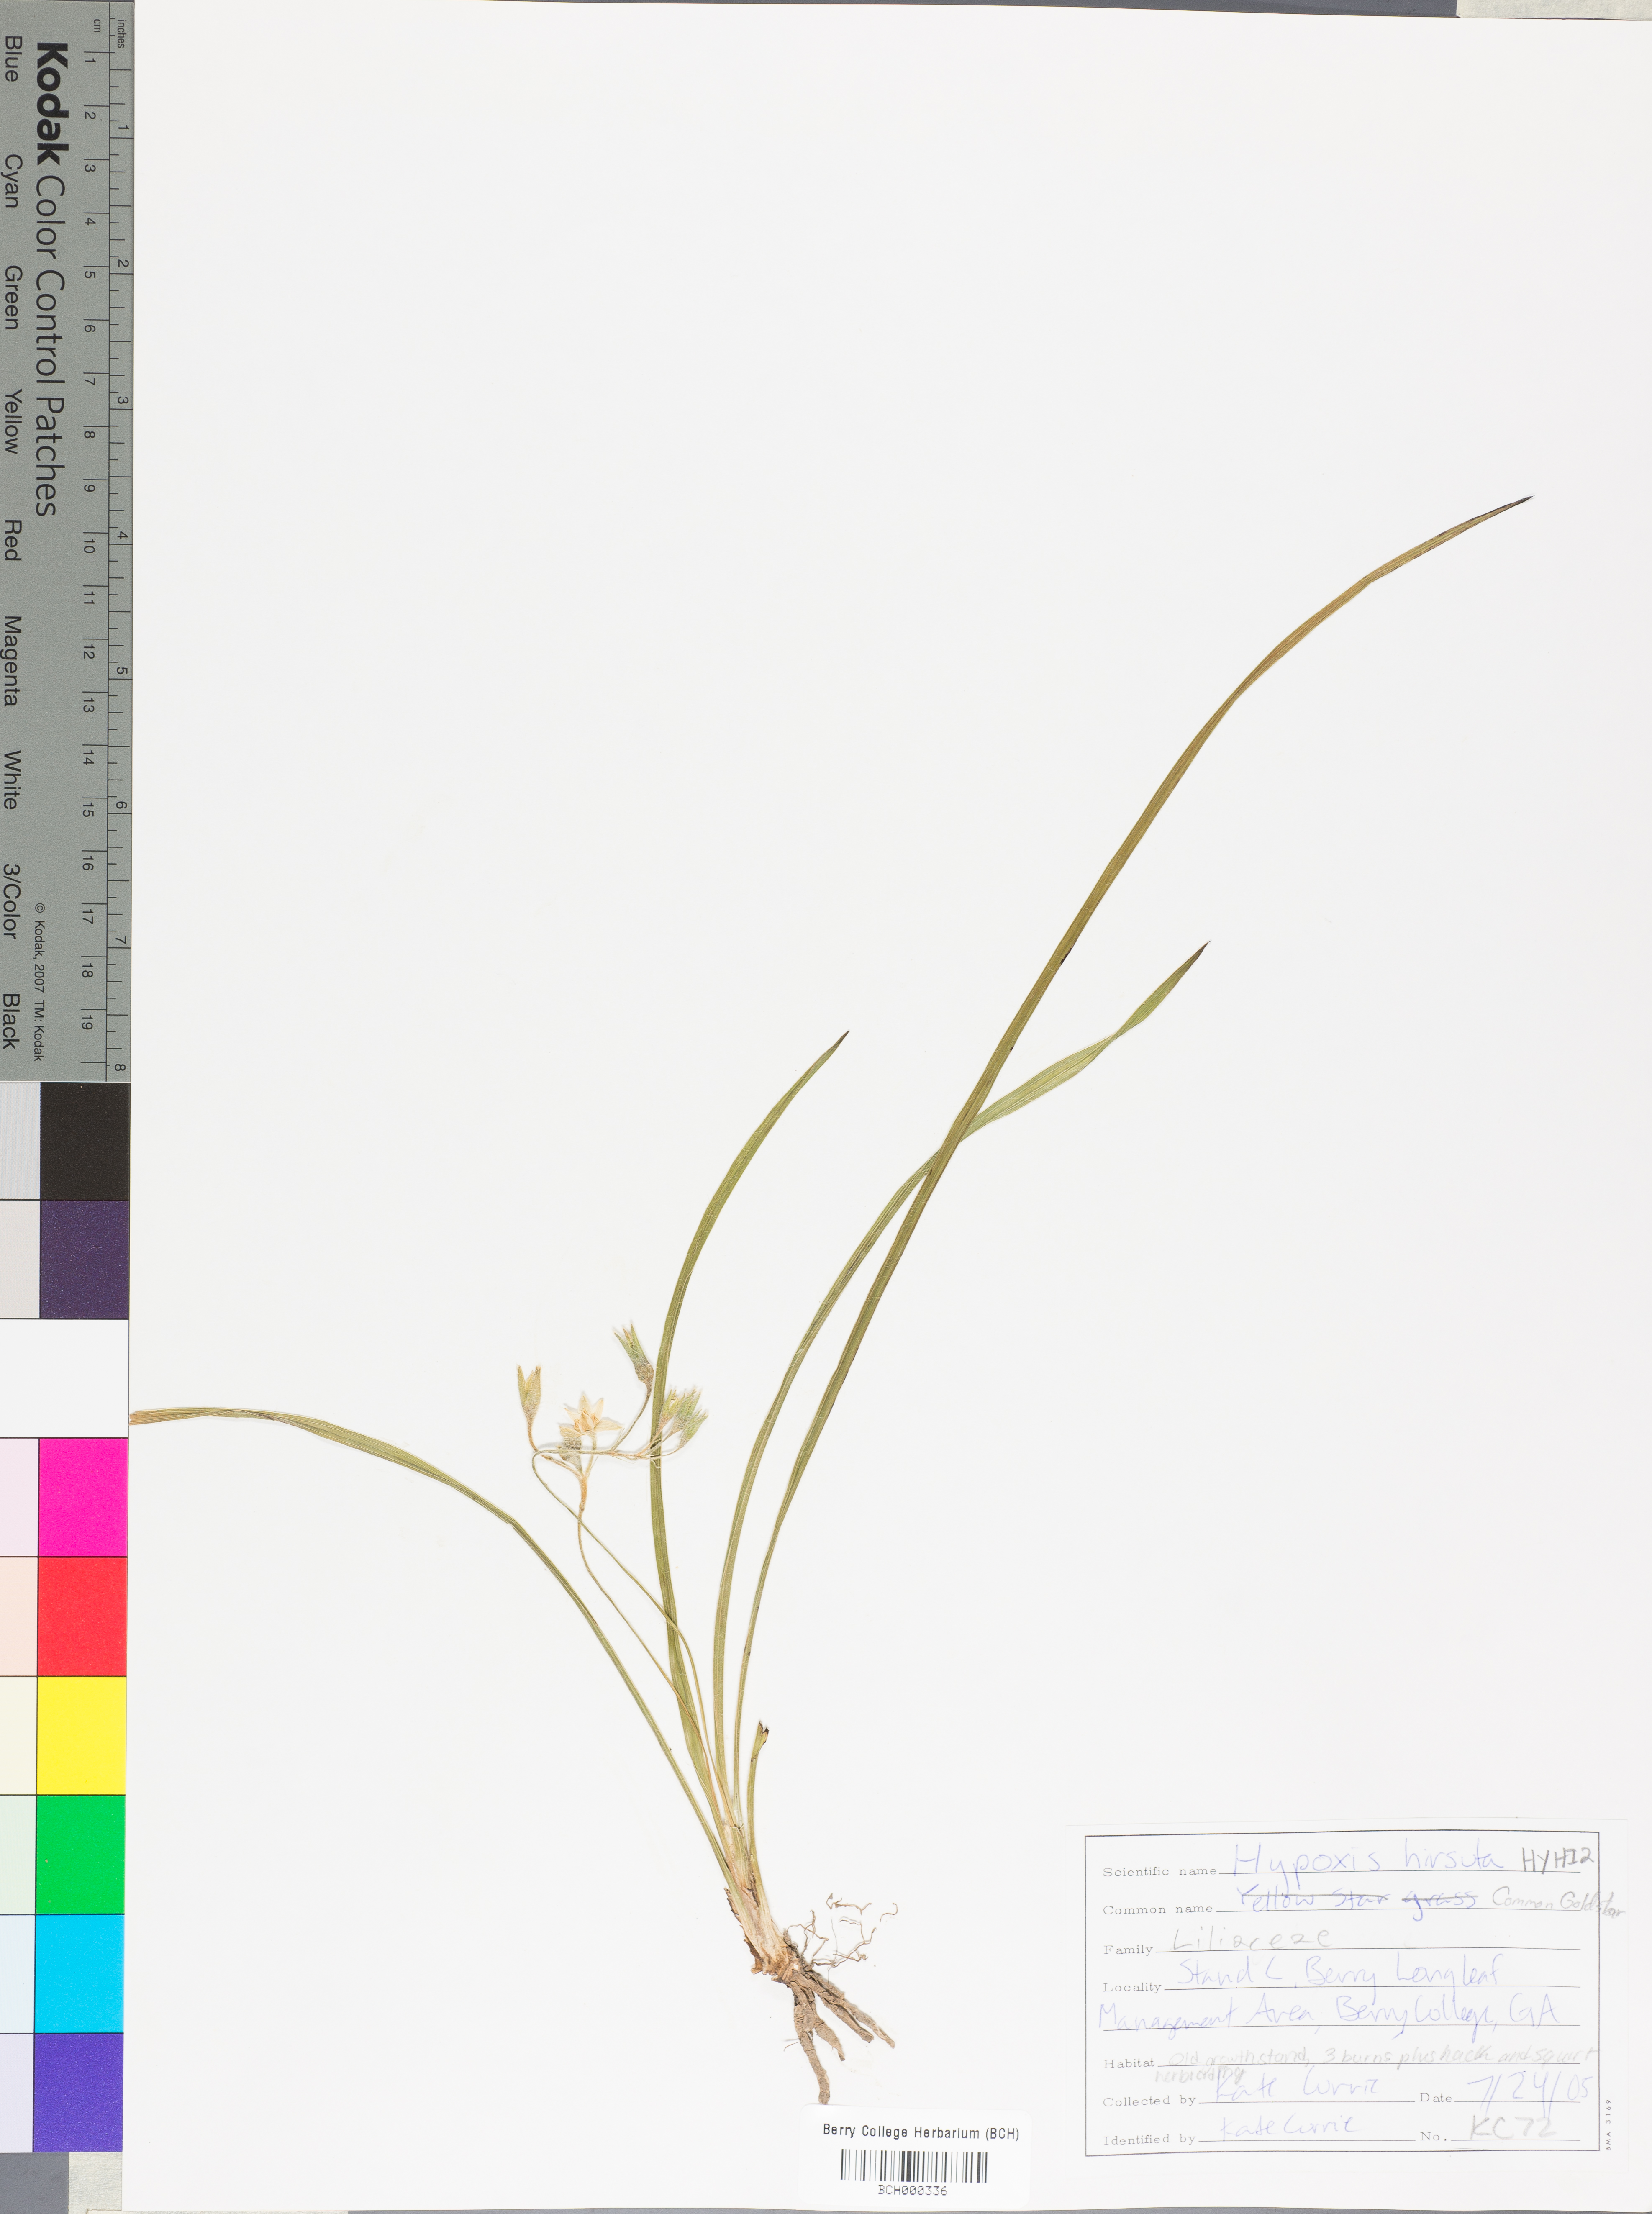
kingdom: Plantae
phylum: Tracheophyta
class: Liliopsida
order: Asparagales
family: Hypoxidaceae
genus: Hypoxis
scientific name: Hypoxis hirsuta
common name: Common goldstar
